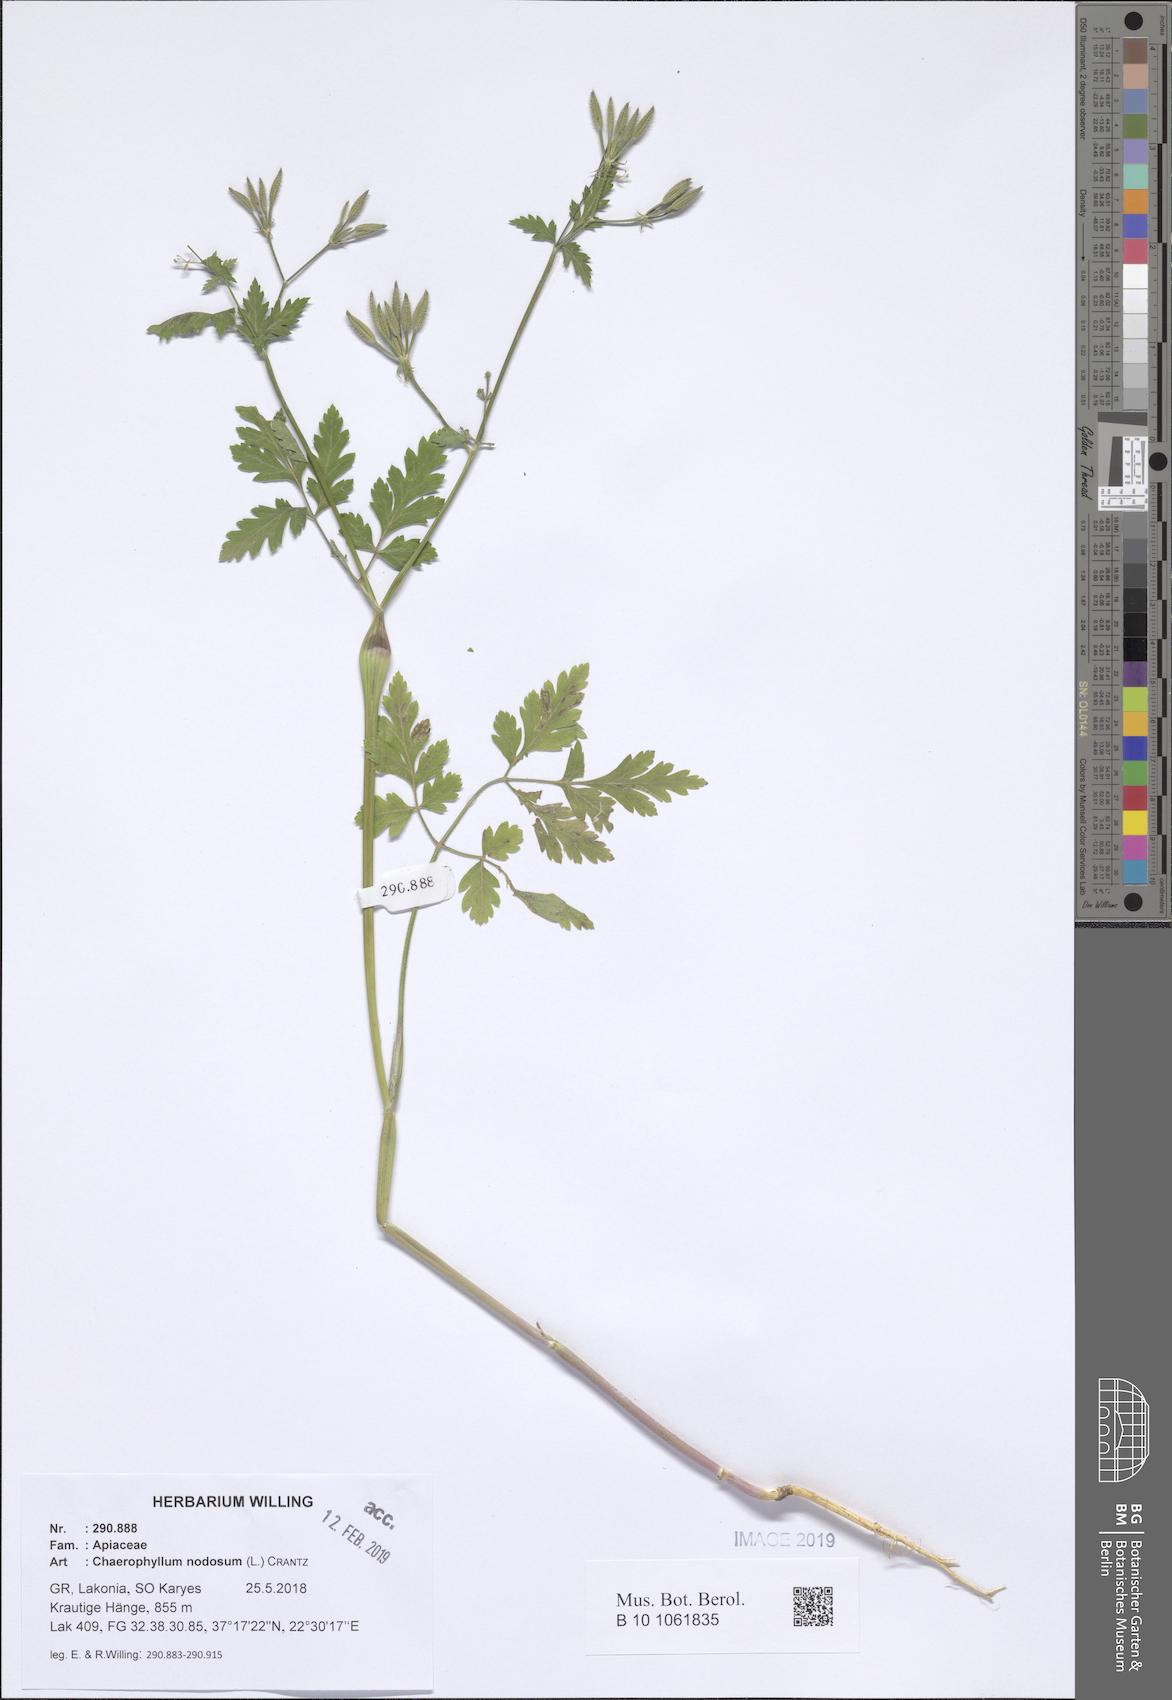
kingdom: Plantae
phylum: Tracheophyta
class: Magnoliopsida
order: Apiales
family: Apiaceae
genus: Chaerophyllum
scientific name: Chaerophyllum nodosum
